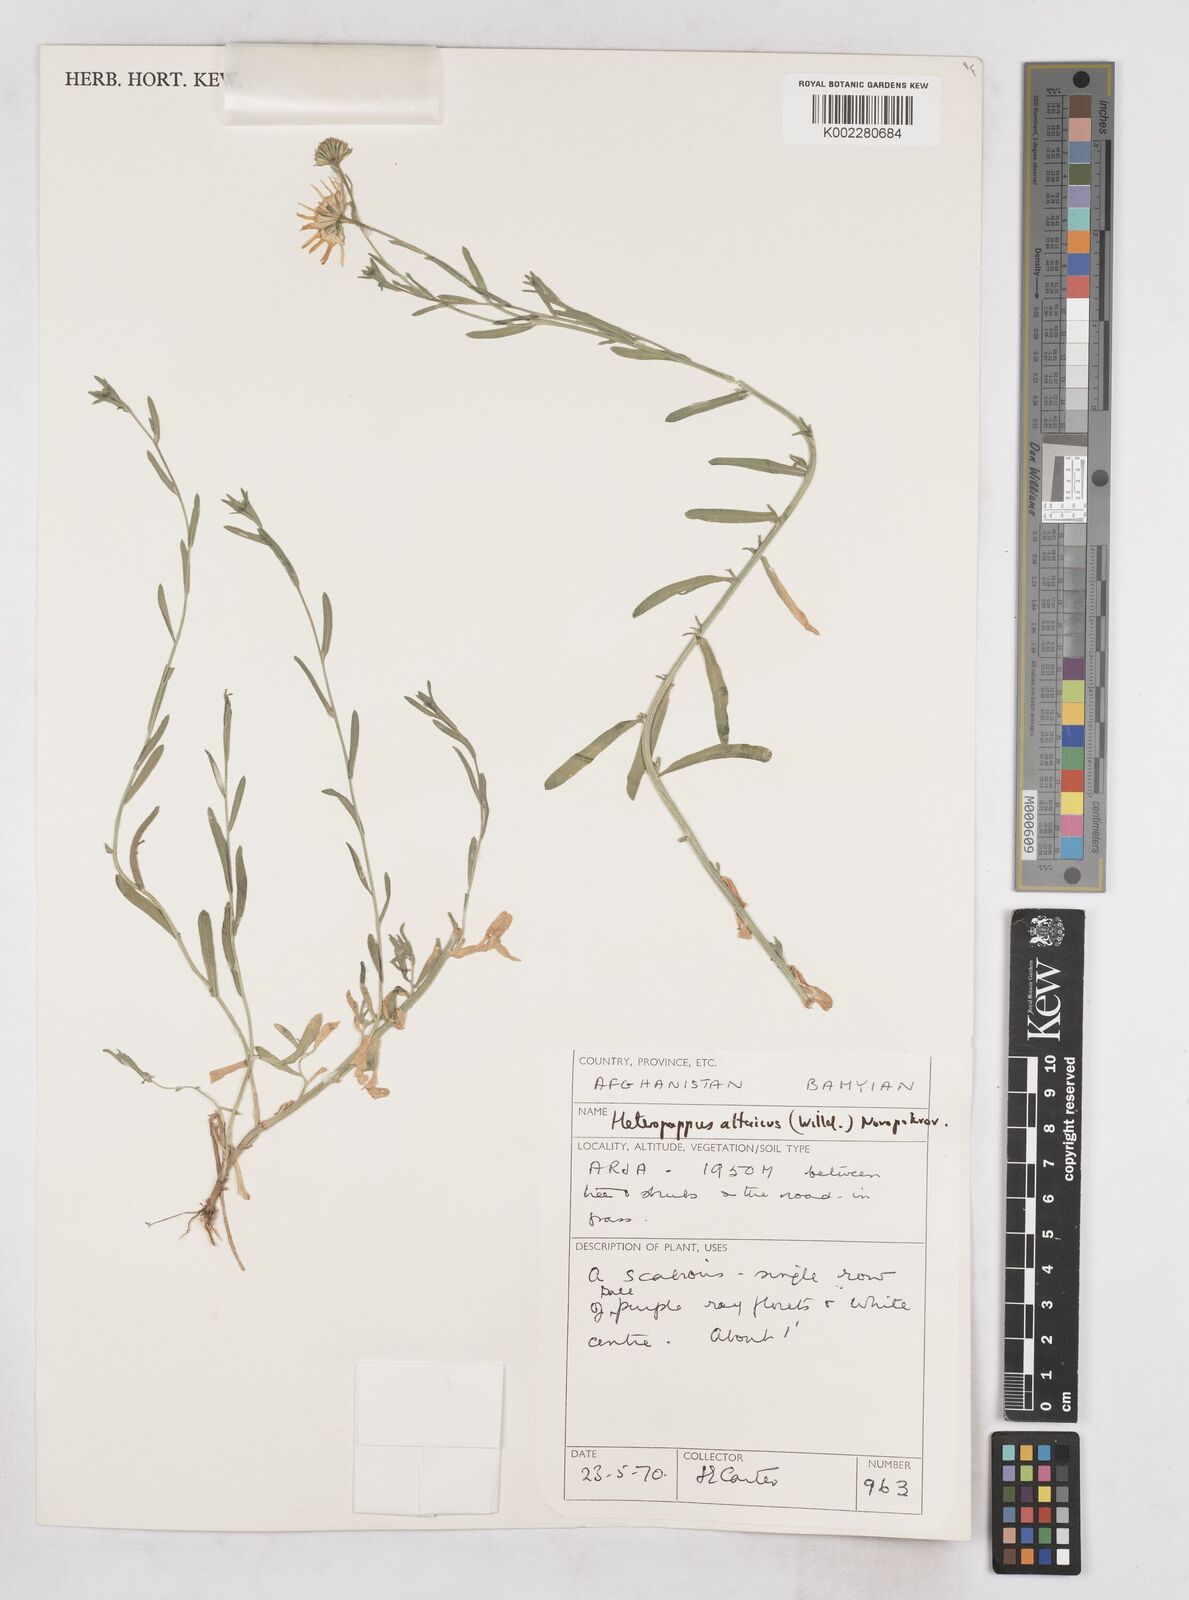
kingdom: Plantae
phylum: Tracheophyta
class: Magnoliopsida
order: Asterales
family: Asteraceae
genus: Heteropappus
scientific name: Heteropappus altaicus
